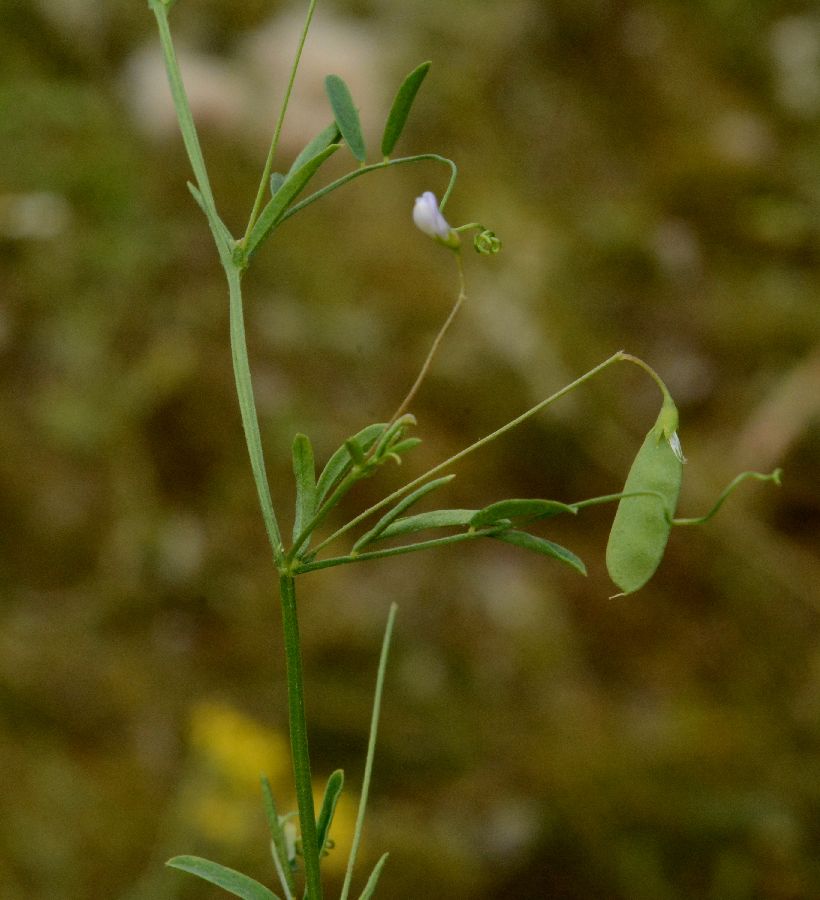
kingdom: Plantae
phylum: Tracheophyta
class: Magnoliopsida
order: Fabales
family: Fabaceae
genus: Vicia
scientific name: Vicia tetrasperma
